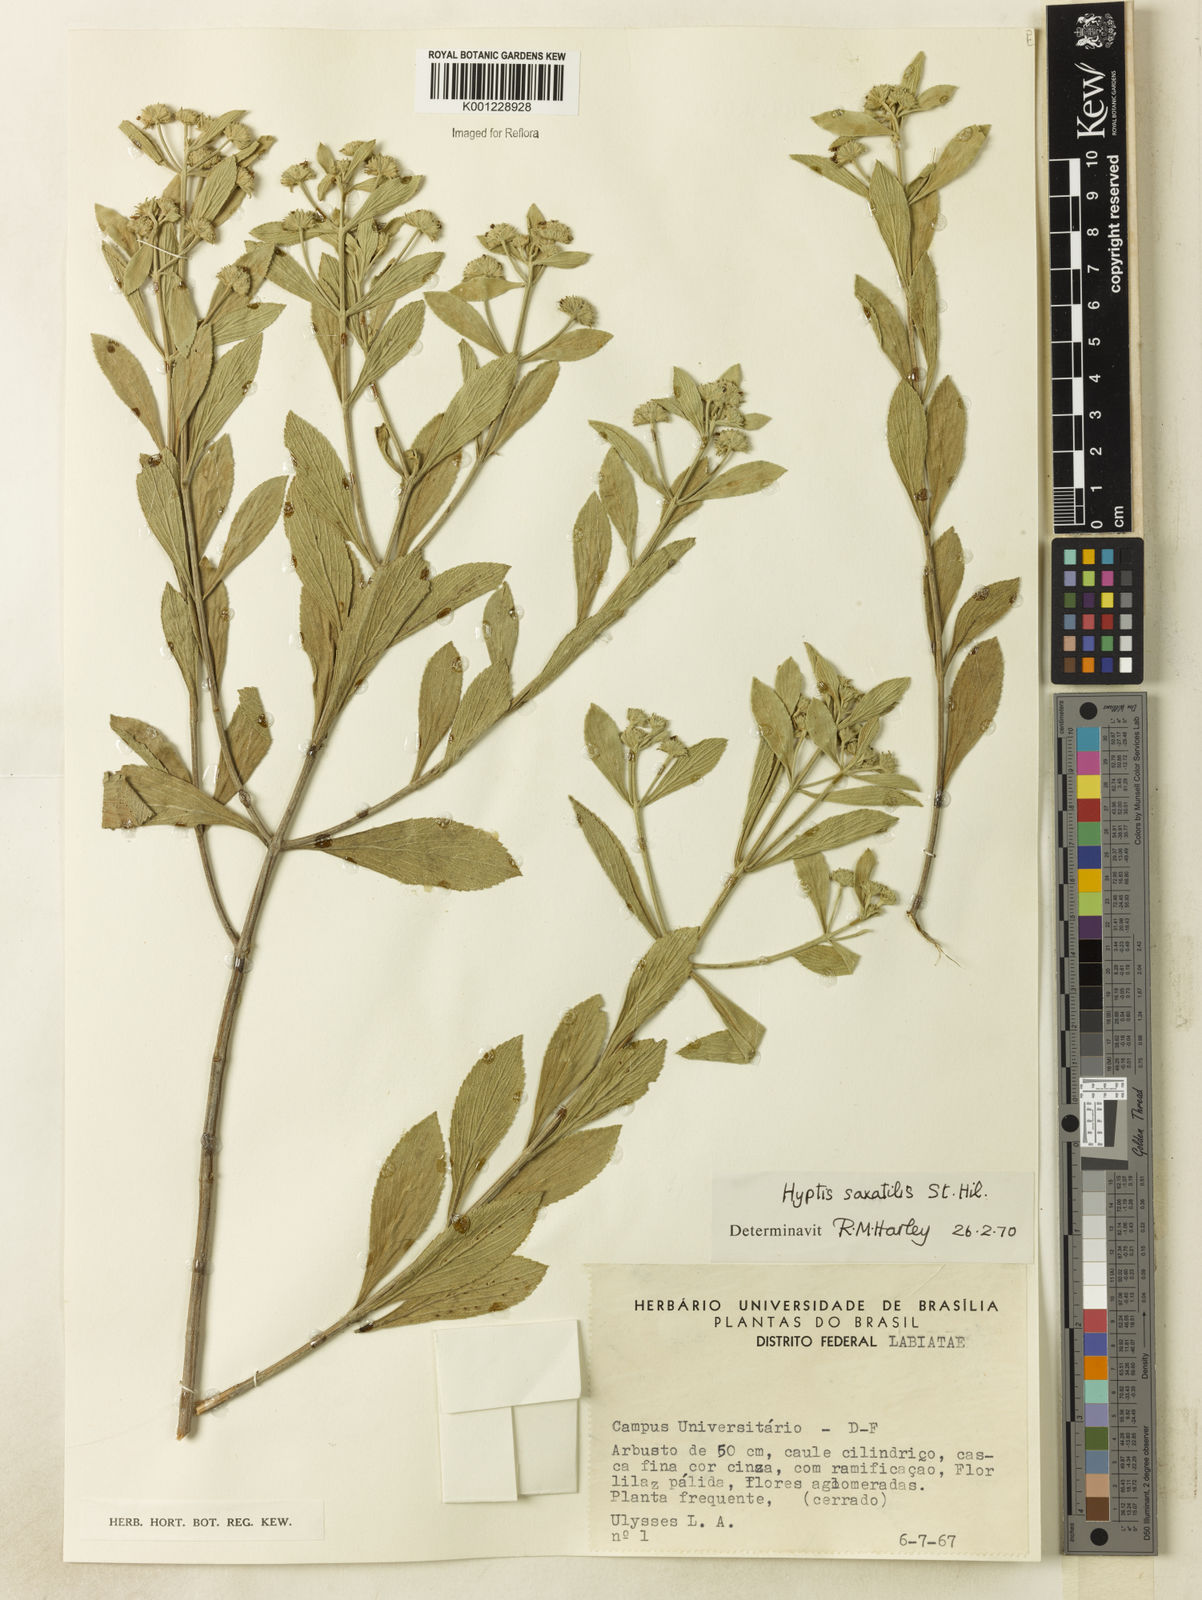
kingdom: Plantae
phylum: Tracheophyta
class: Magnoliopsida
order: Lamiales
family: Lamiaceae
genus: Hyptis
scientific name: Hyptis saxatilis
